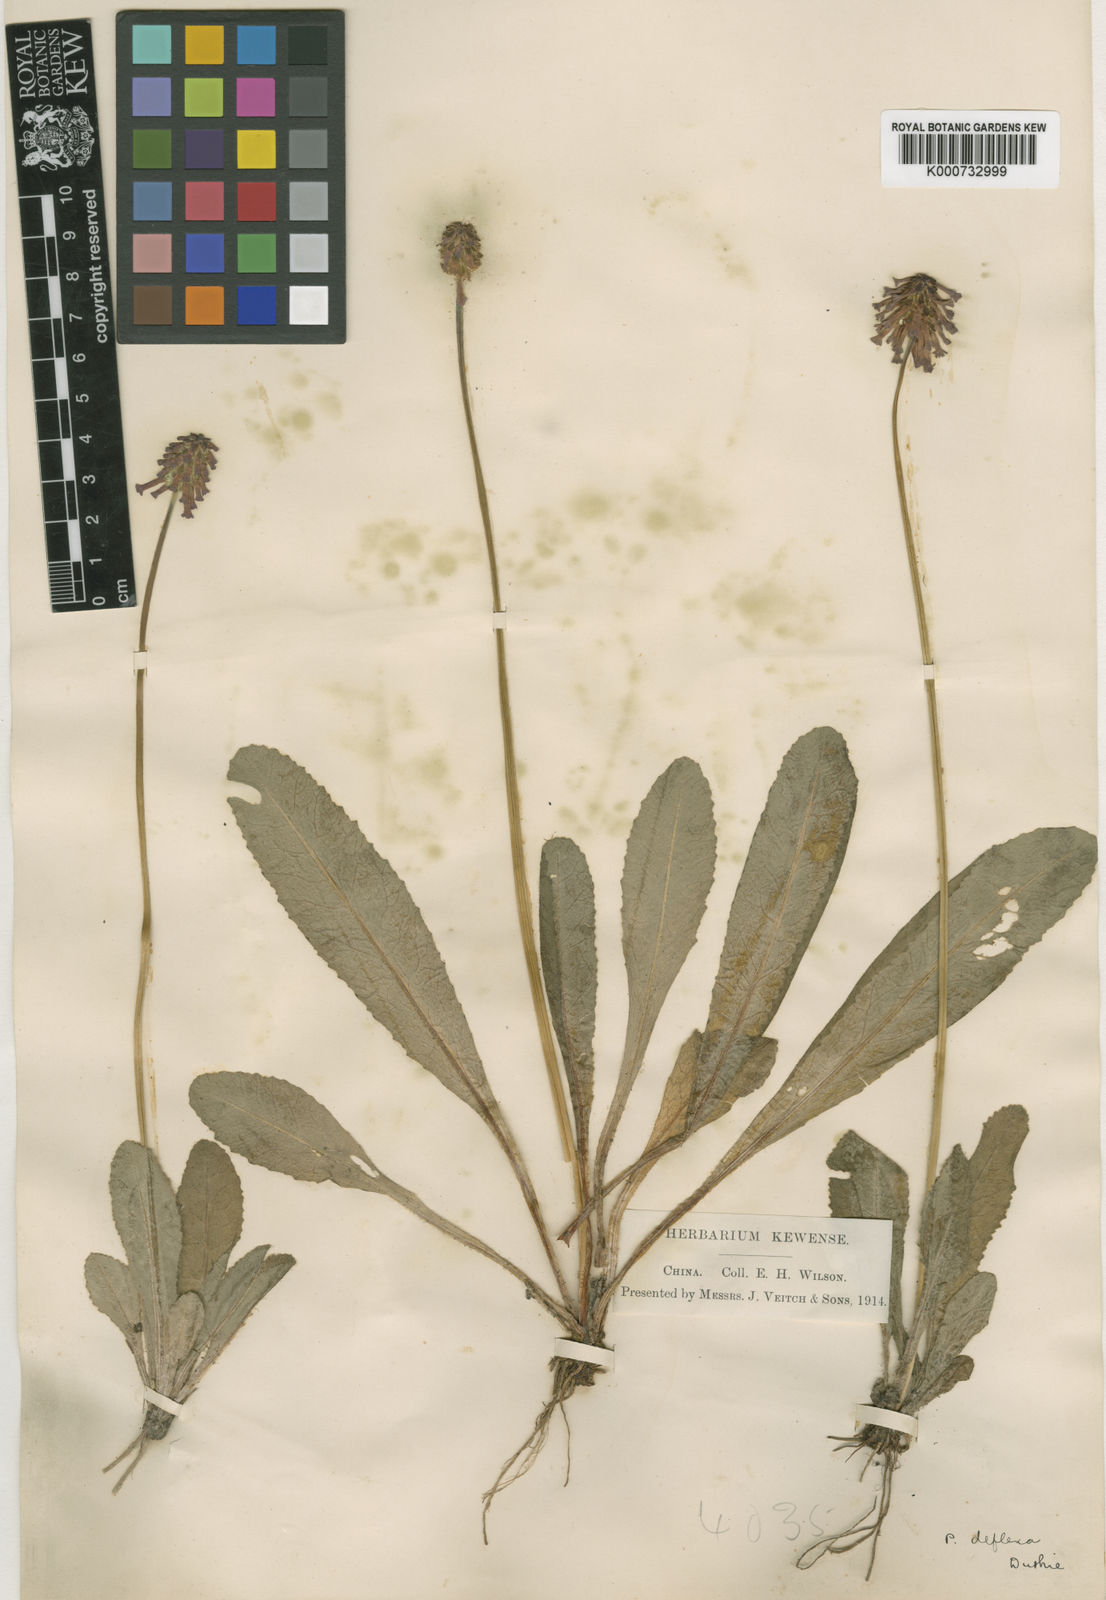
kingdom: Plantae
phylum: Tracheophyta
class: Magnoliopsida
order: Ericales
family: Primulaceae
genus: Primula
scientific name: Primula gracilenta
